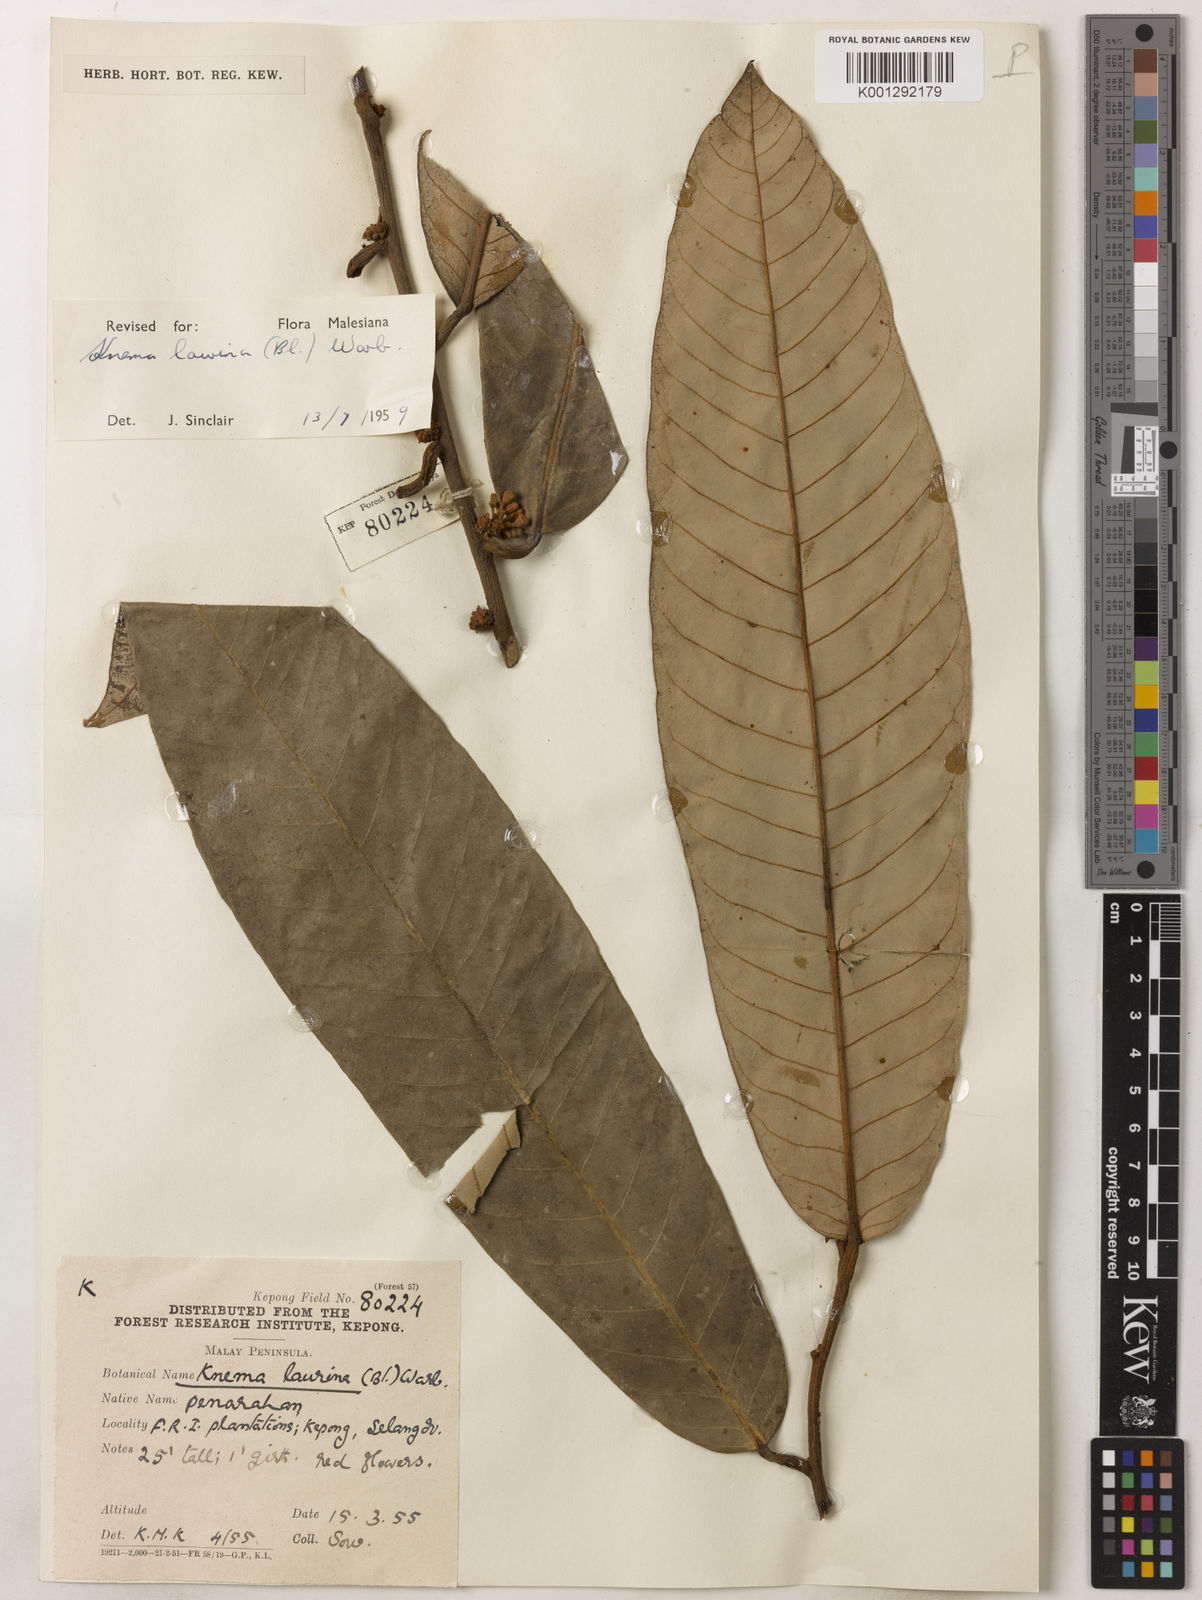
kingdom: Plantae
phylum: Tracheophyta
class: Magnoliopsida
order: Magnoliales
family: Myristicaceae
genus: Knema
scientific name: Knema laurina
